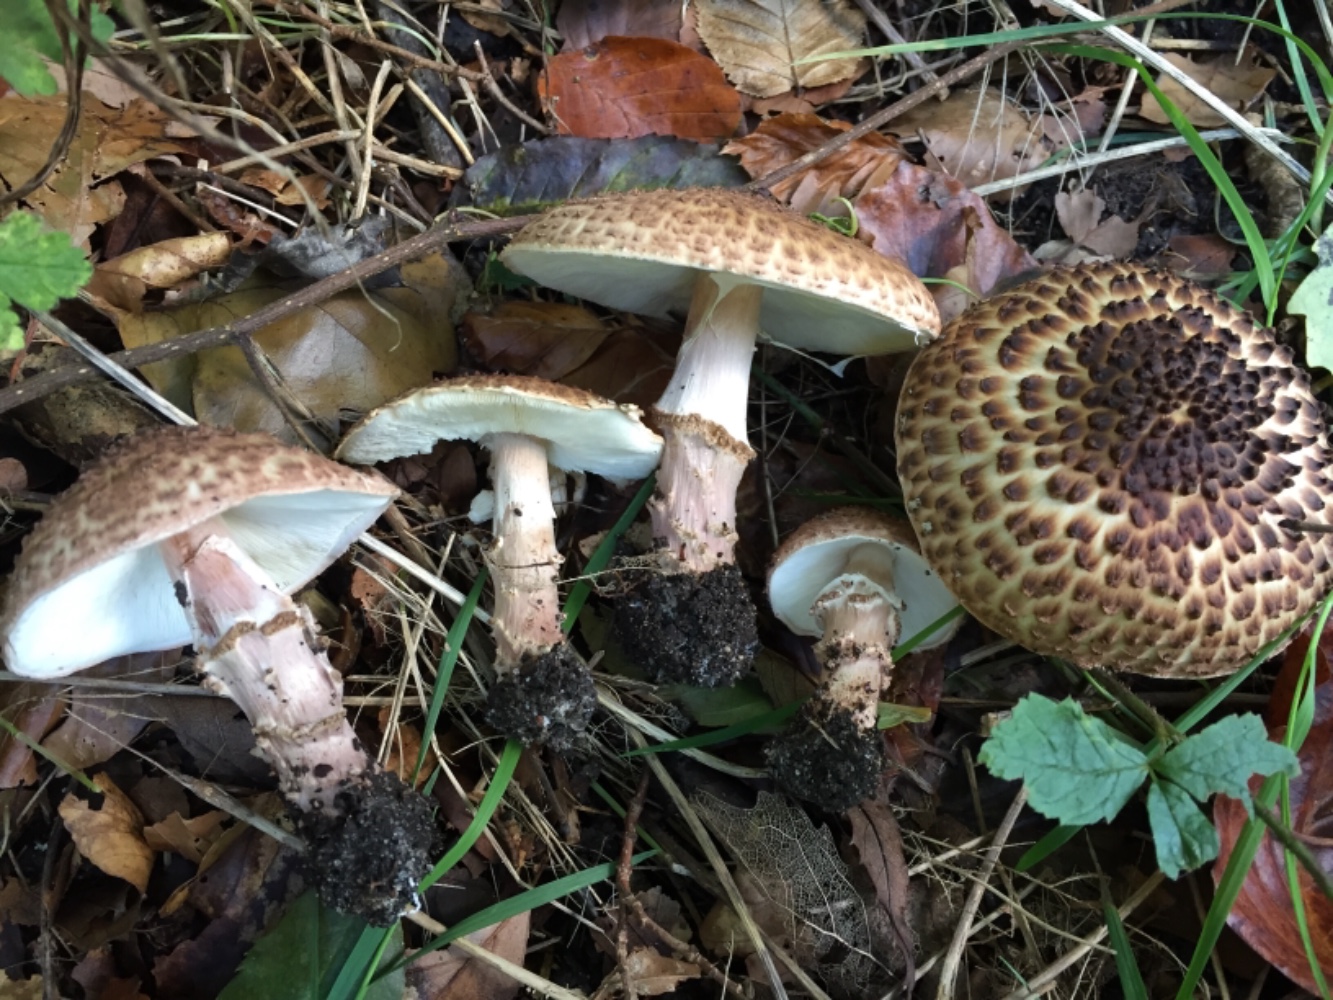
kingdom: Fungi
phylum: Basidiomycota
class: Agaricomycetes
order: Agaricales
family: Agaricaceae
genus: Echinoderma
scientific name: Echinoderma asperum
